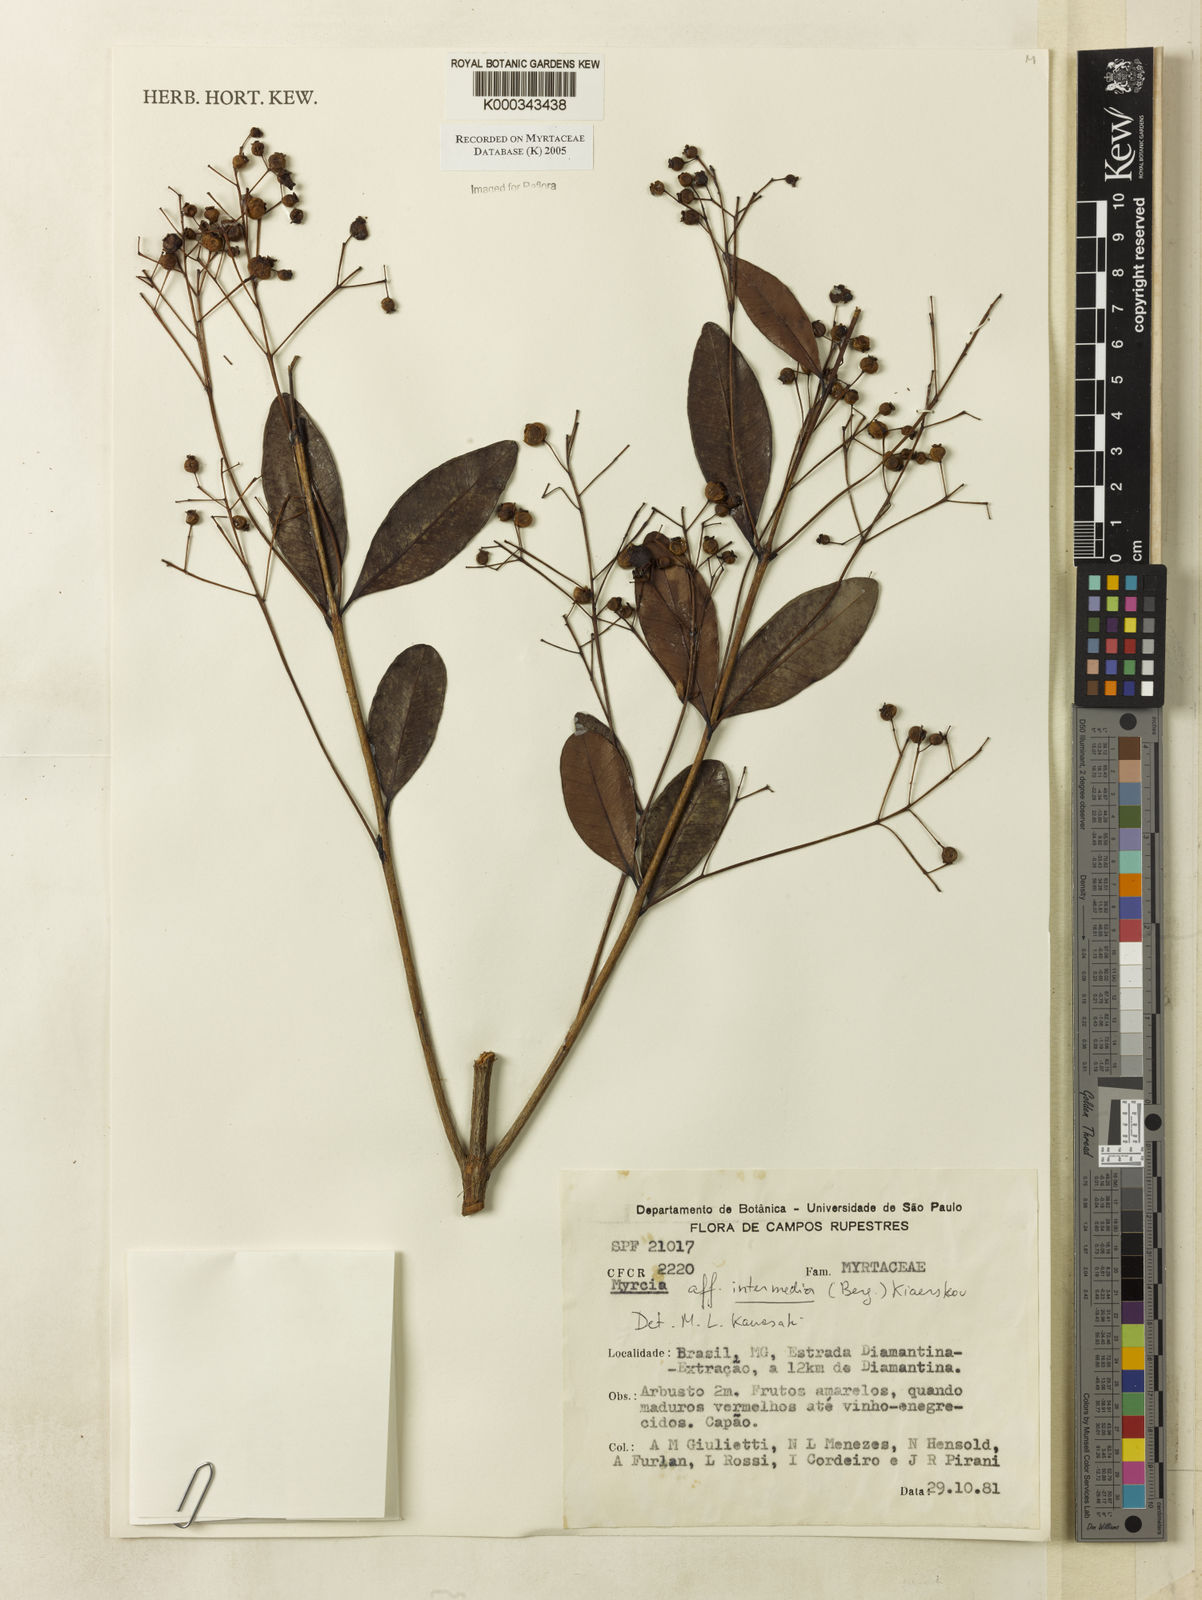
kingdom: Plantae
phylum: Tracheophyta
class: Magnoliopsida
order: Myrtales
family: Myrtaceae
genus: Myrcia
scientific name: Myrcia guianensis
